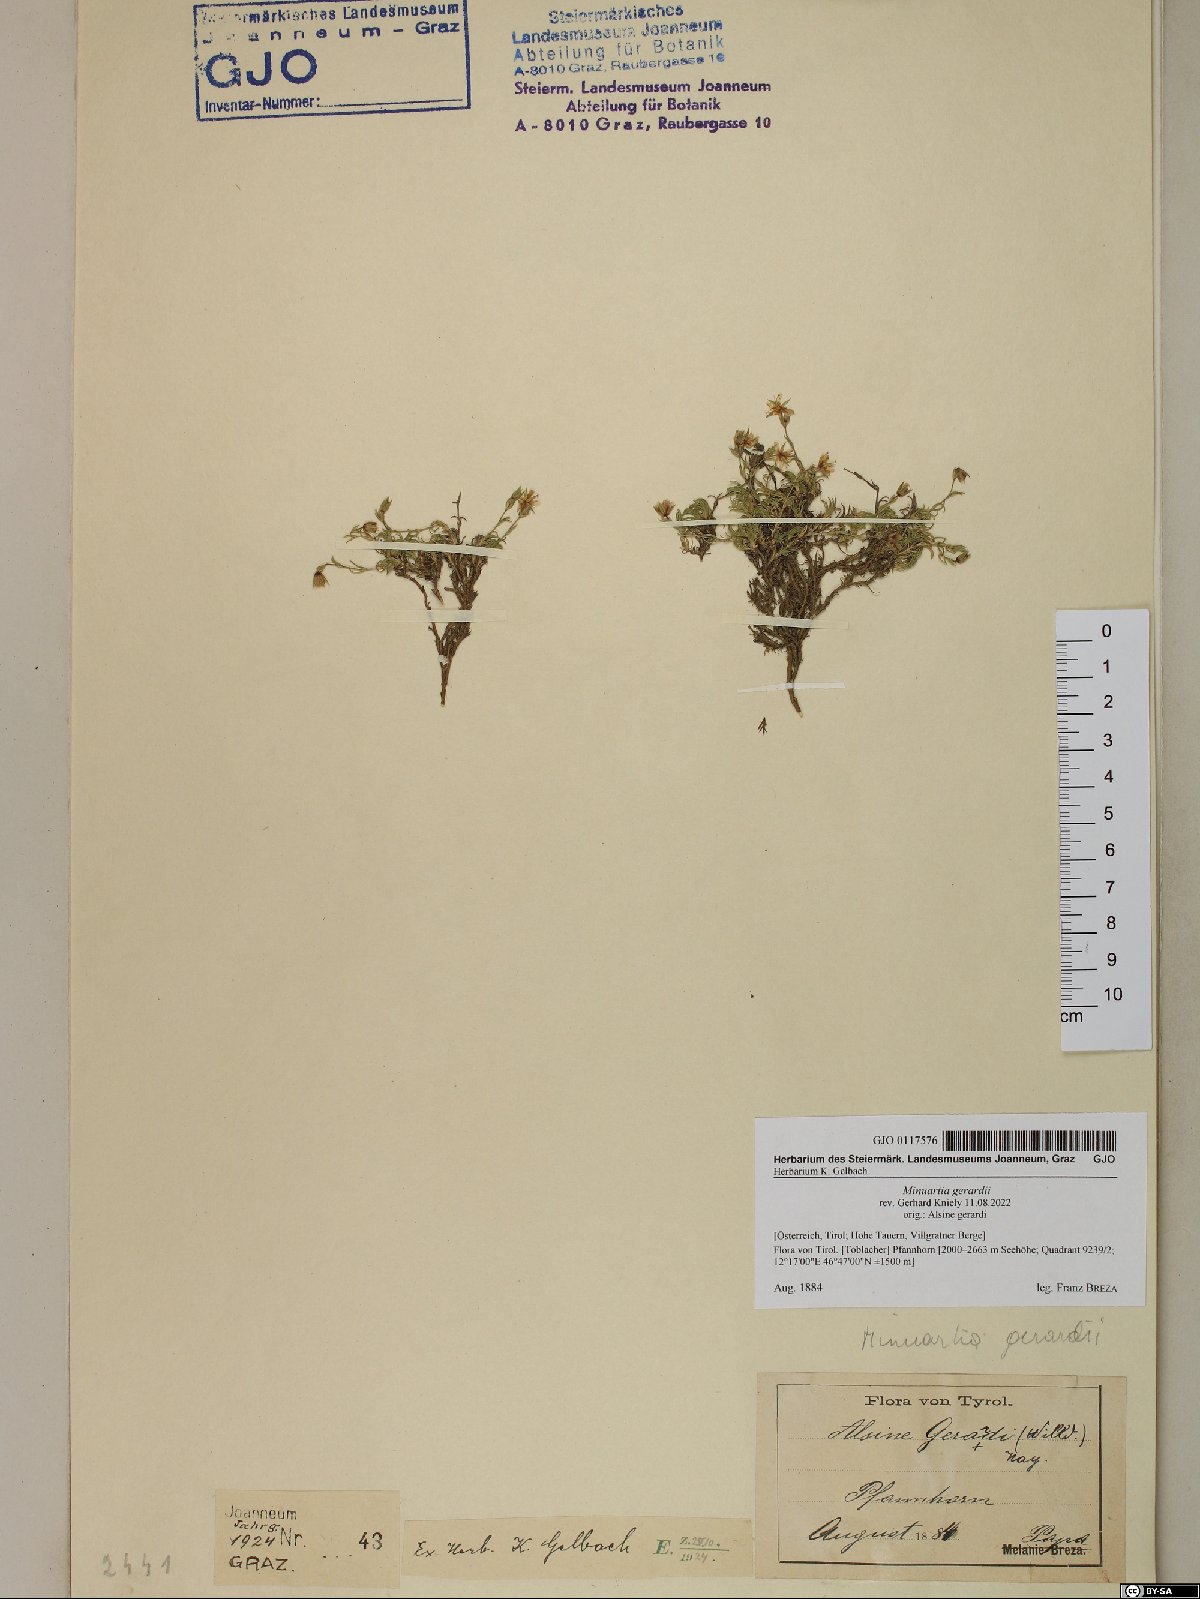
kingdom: Plantae
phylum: Tracheophyta
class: Magnoliopsida
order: Caryophyllales
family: Caryophyllaceae
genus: Sabulina
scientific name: Sabulina verna
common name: Spring sandwort
